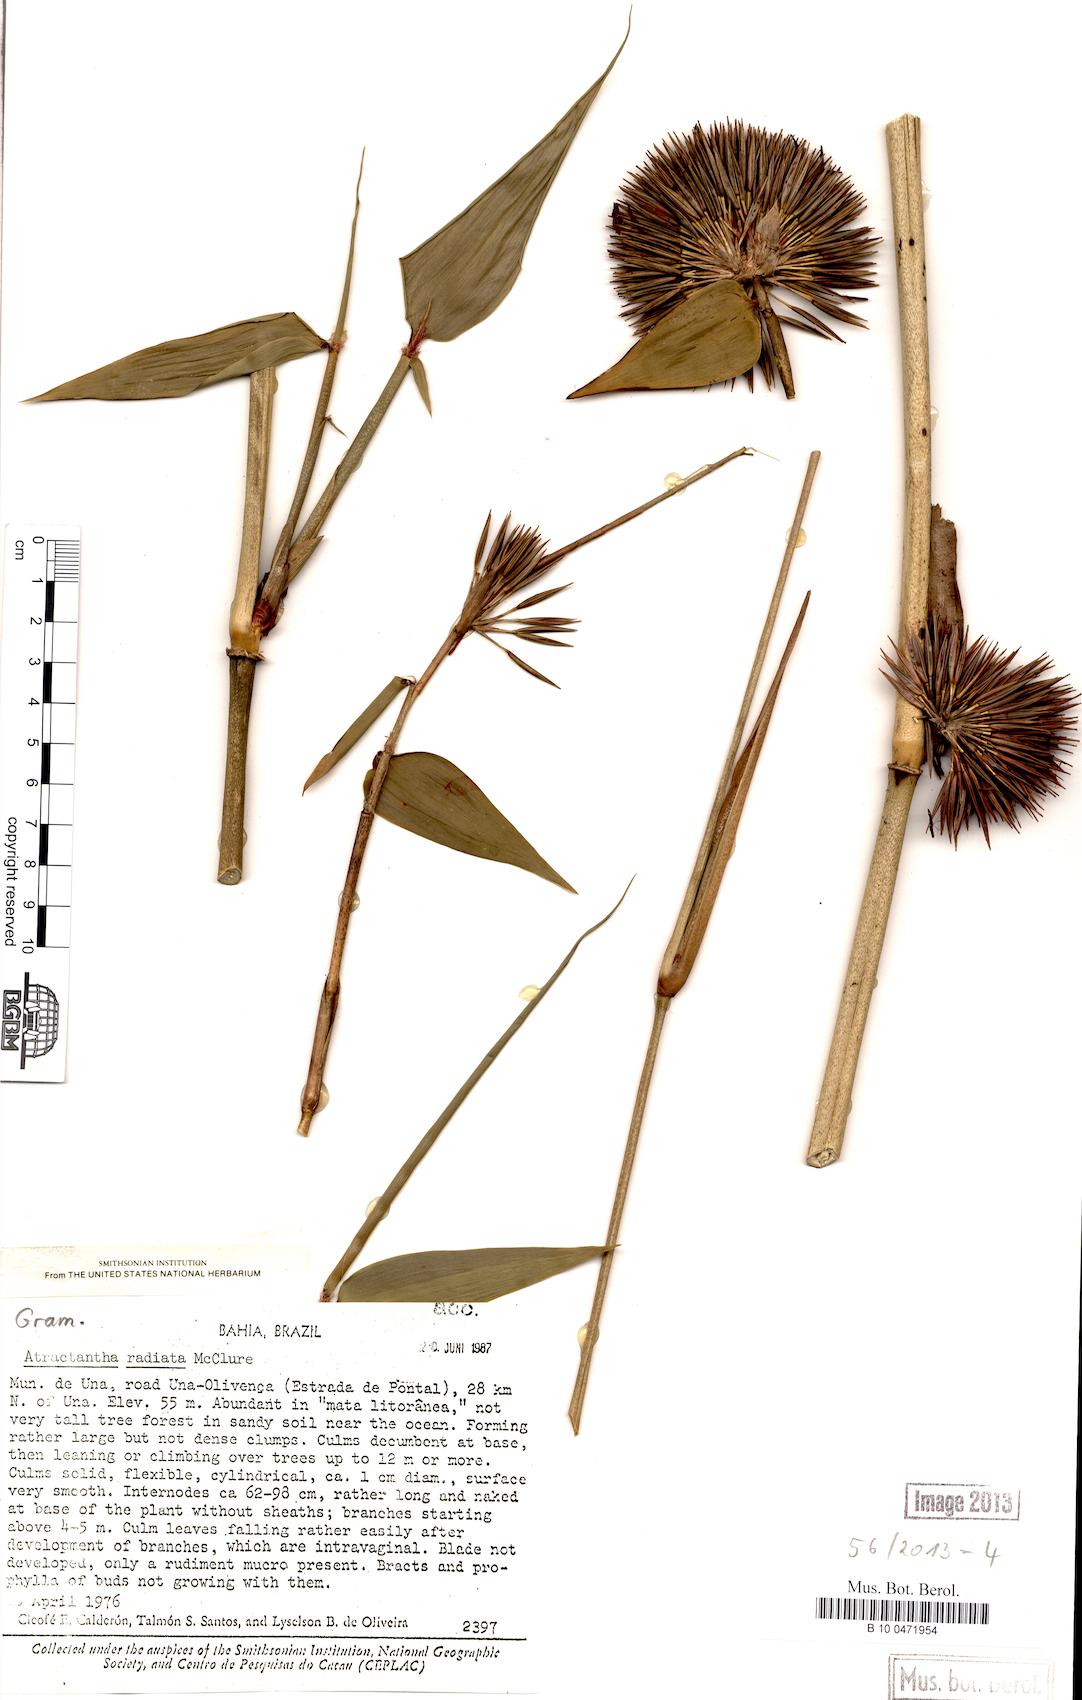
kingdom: Plantae
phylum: Tracheophyta
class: Liliopsida
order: Poales
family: Poaceae
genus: Atractantha
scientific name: Atractantha radiata
